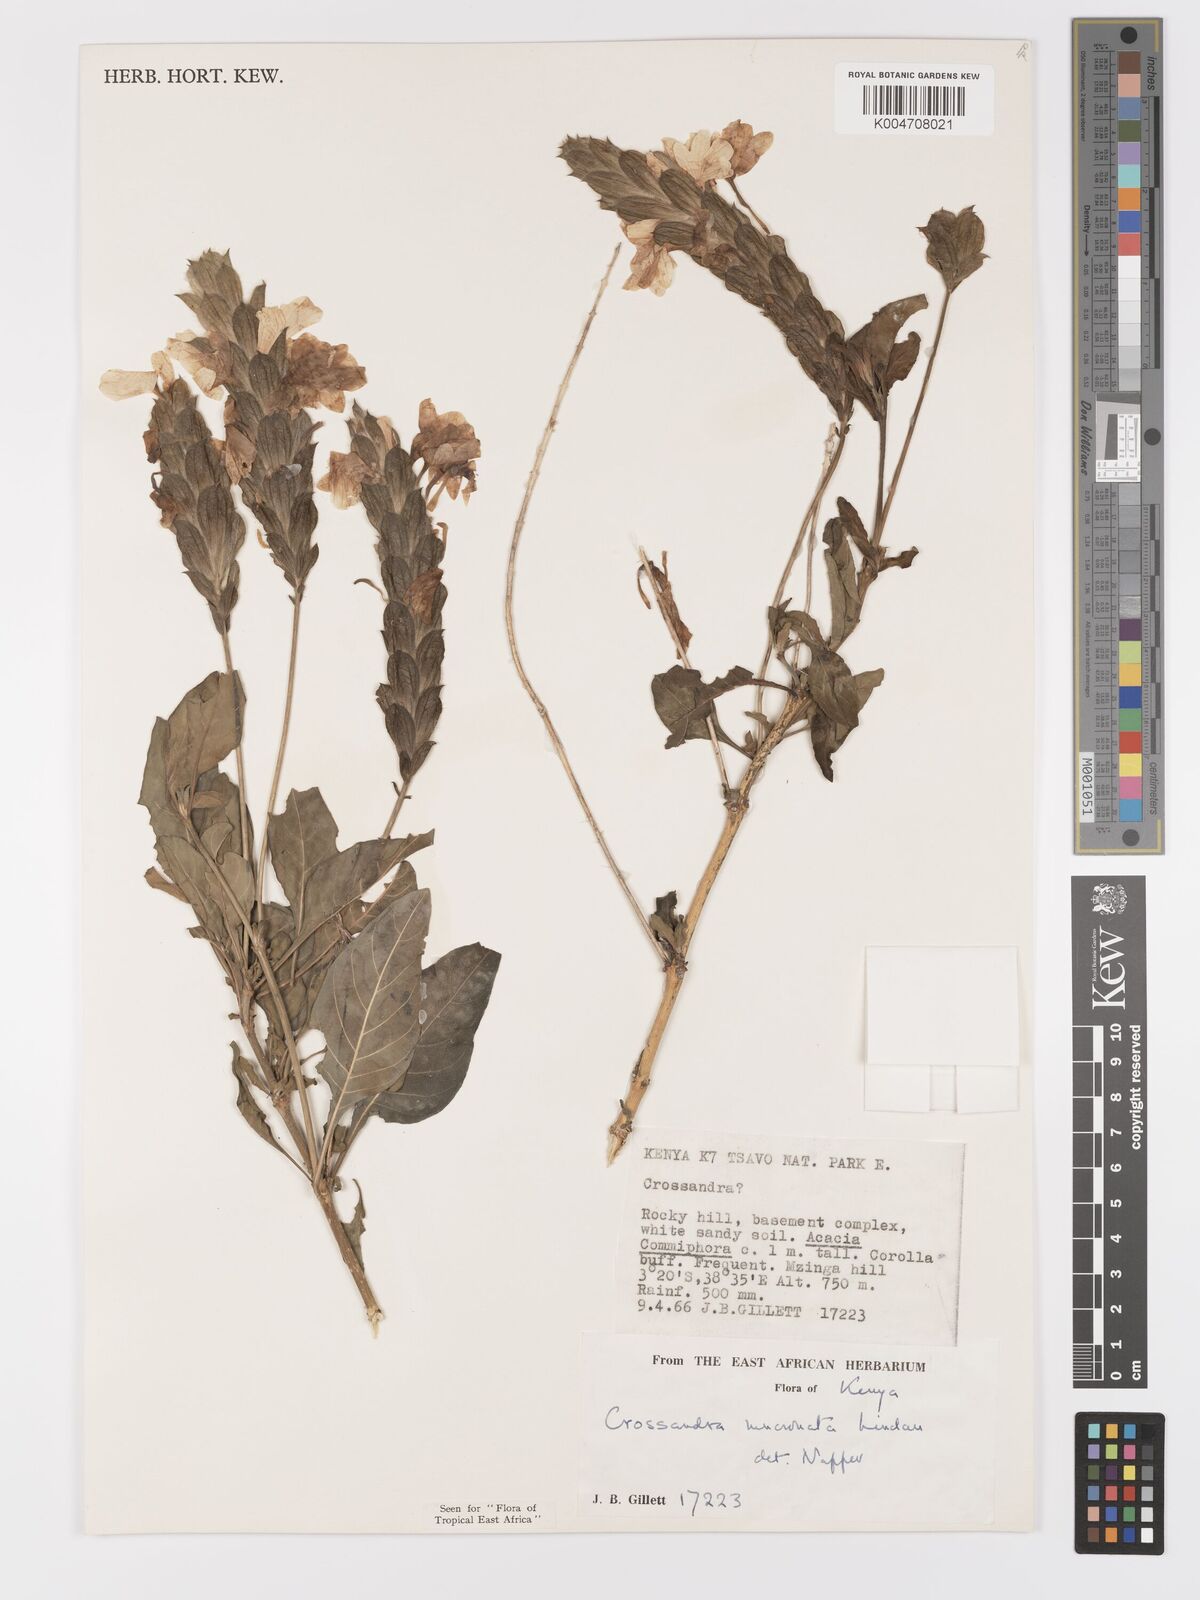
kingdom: Plantae
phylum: Tracheophyta
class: Magnoliopsida
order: Lamiales
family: Acanthaceae
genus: Crossandra
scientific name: Crossandra mucronata
